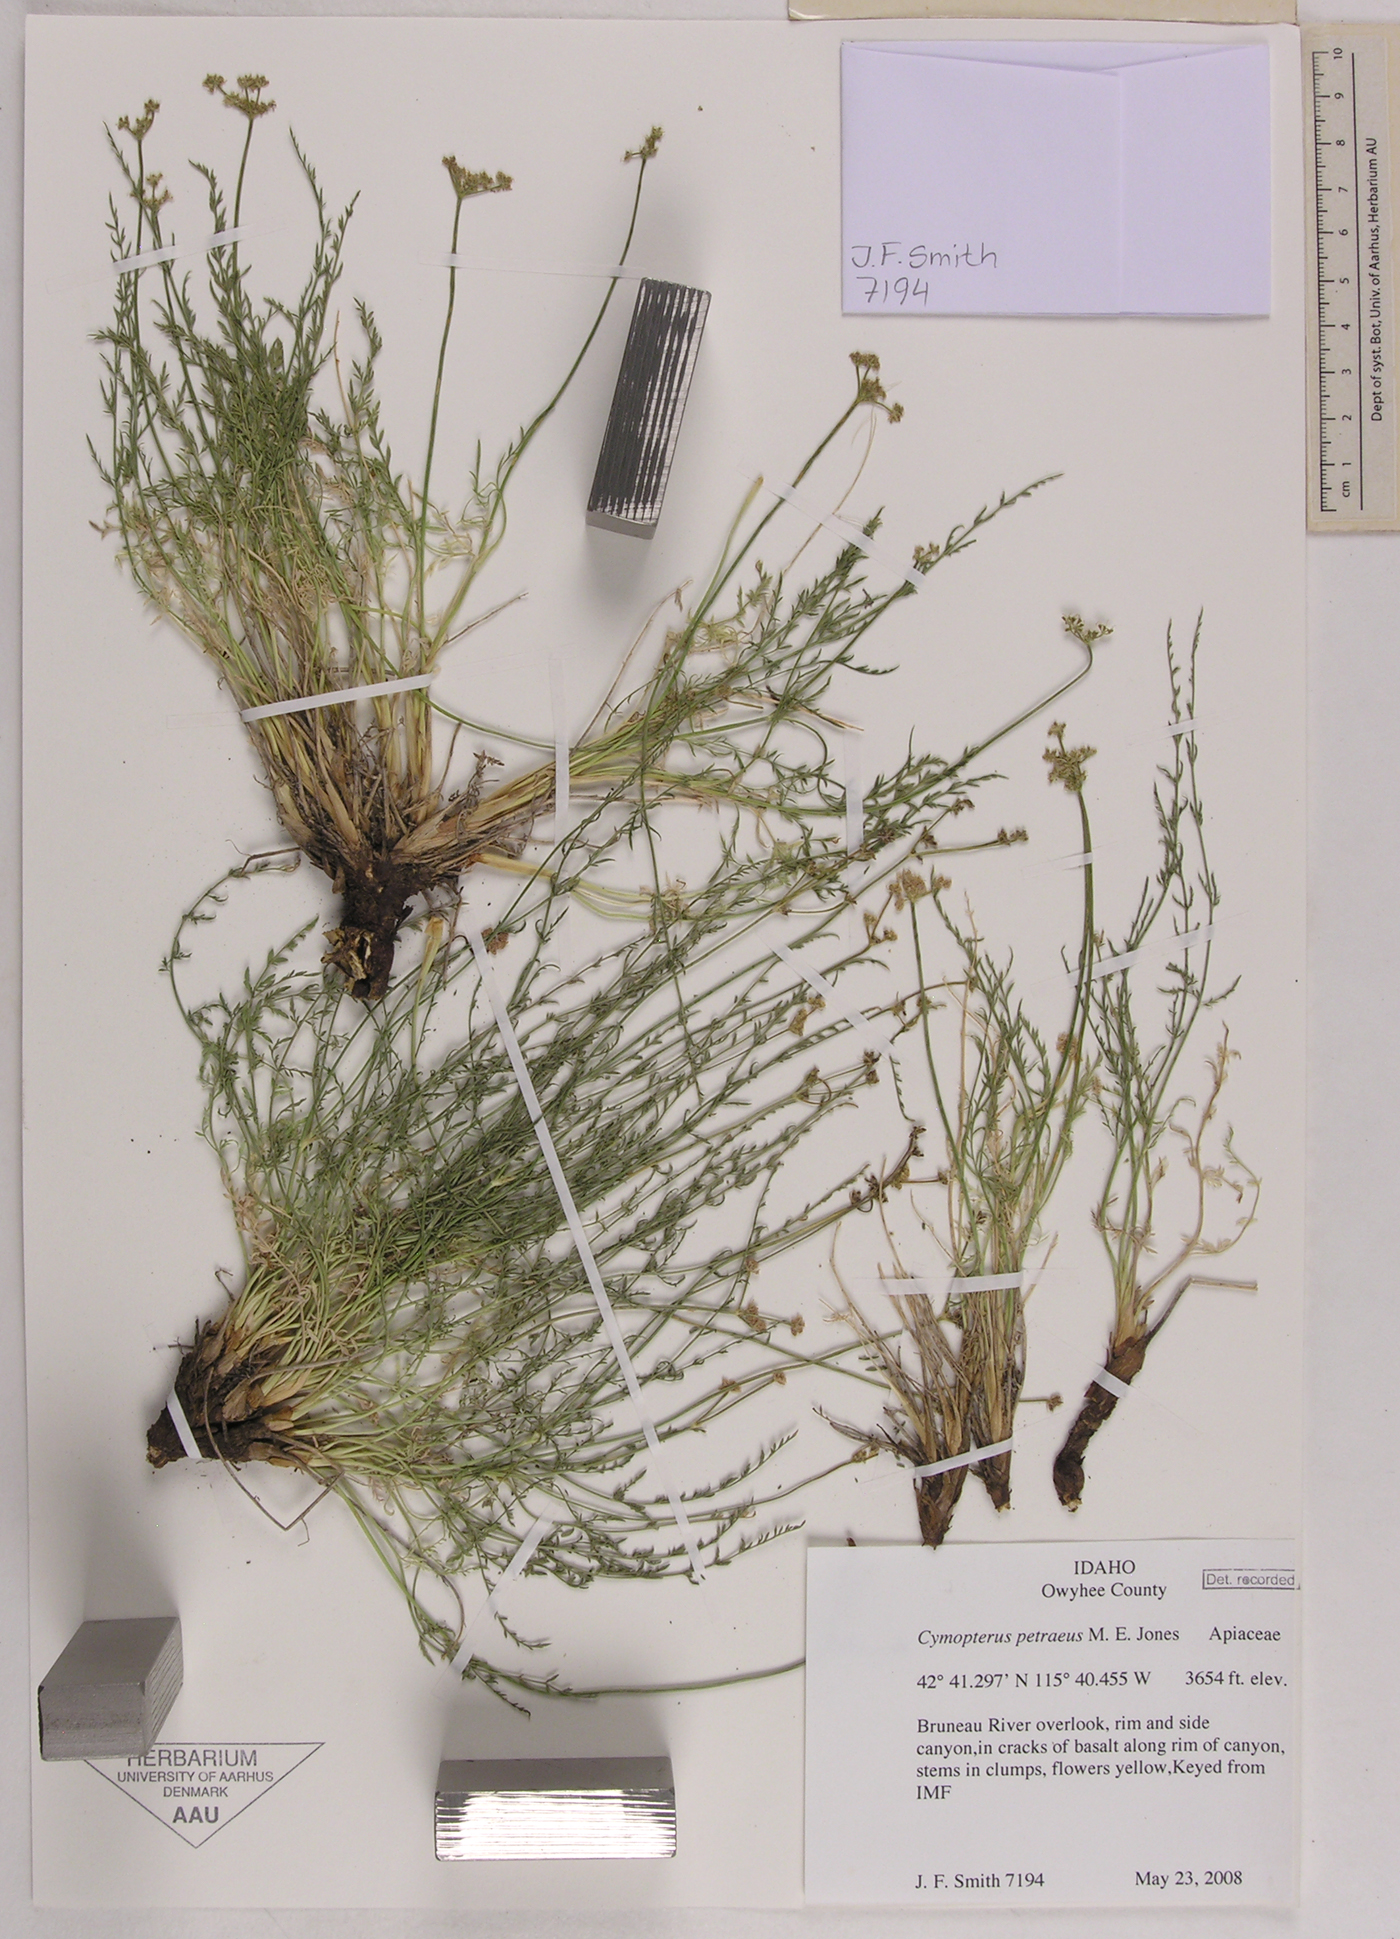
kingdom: Plantae
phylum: Tracheophyta
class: Magnoliopsida
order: Apiales
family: Apiaceae
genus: Pteryxia
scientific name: Pteryxia petraea
